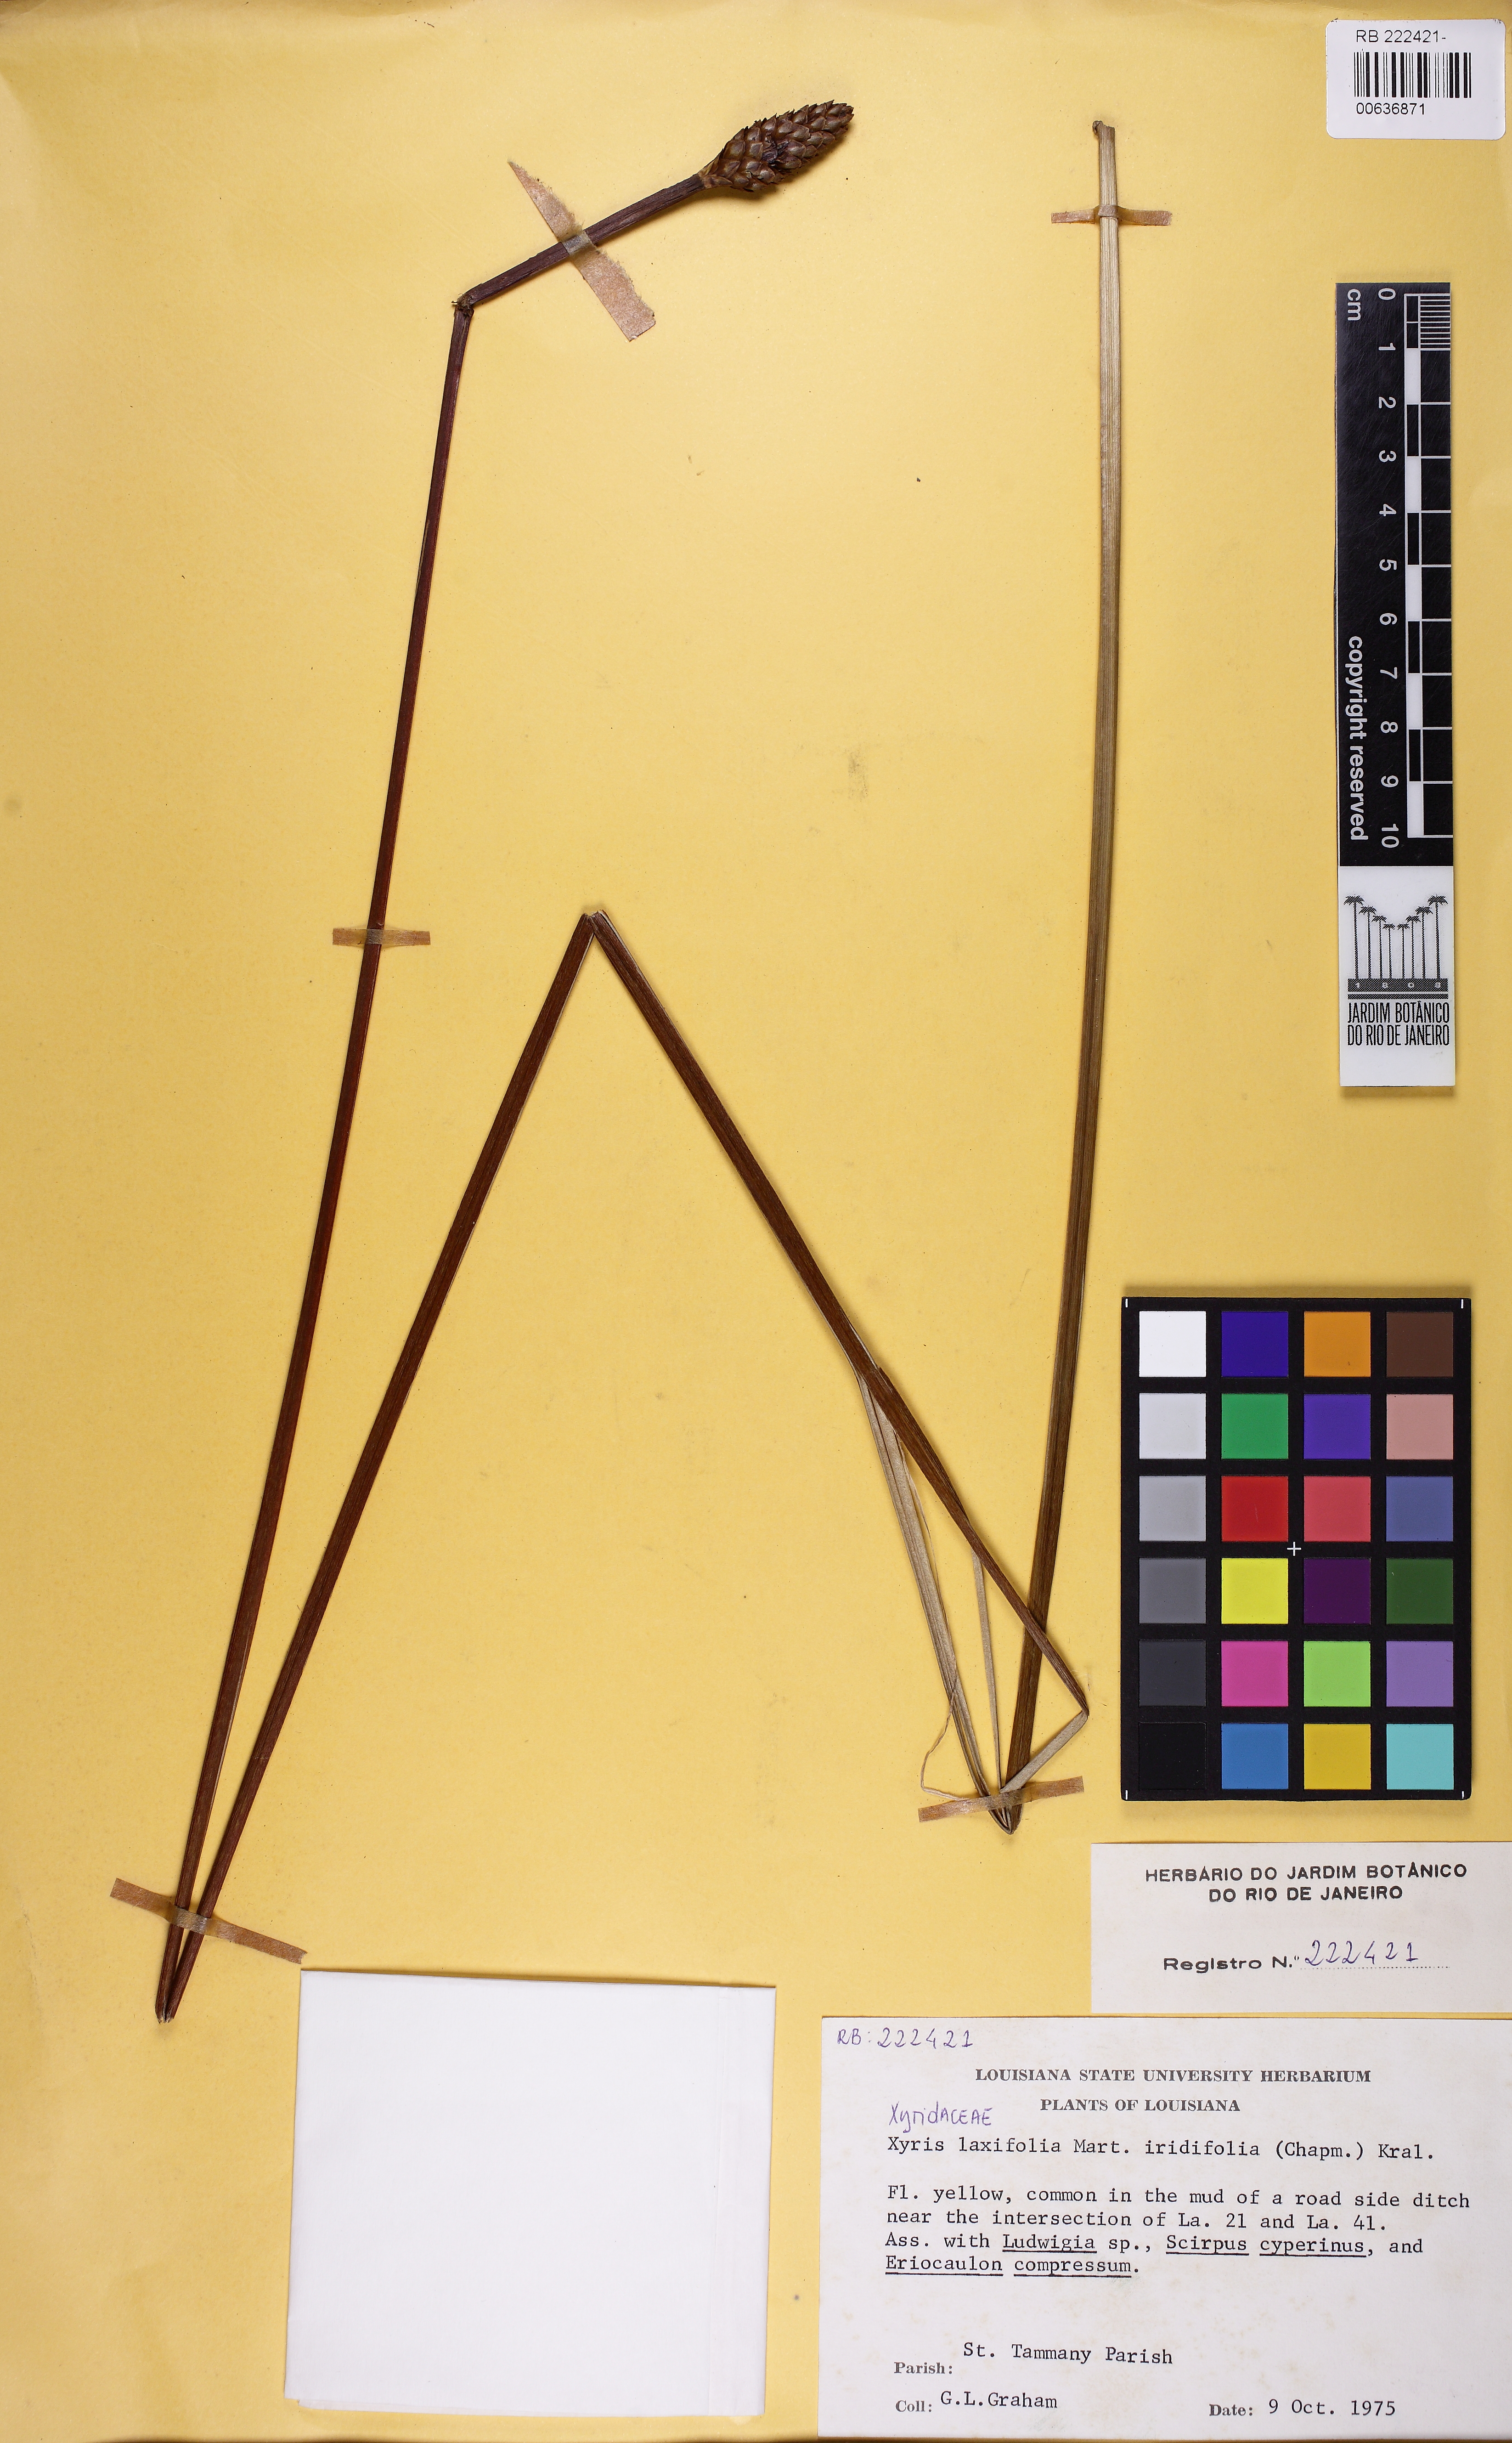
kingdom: Plantae
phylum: Tracheophyta
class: Liliopsida
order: Poales
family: Xyridaceae
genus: Xyris
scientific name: Xyris jupicai
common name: Richard's yelloweyed grass
